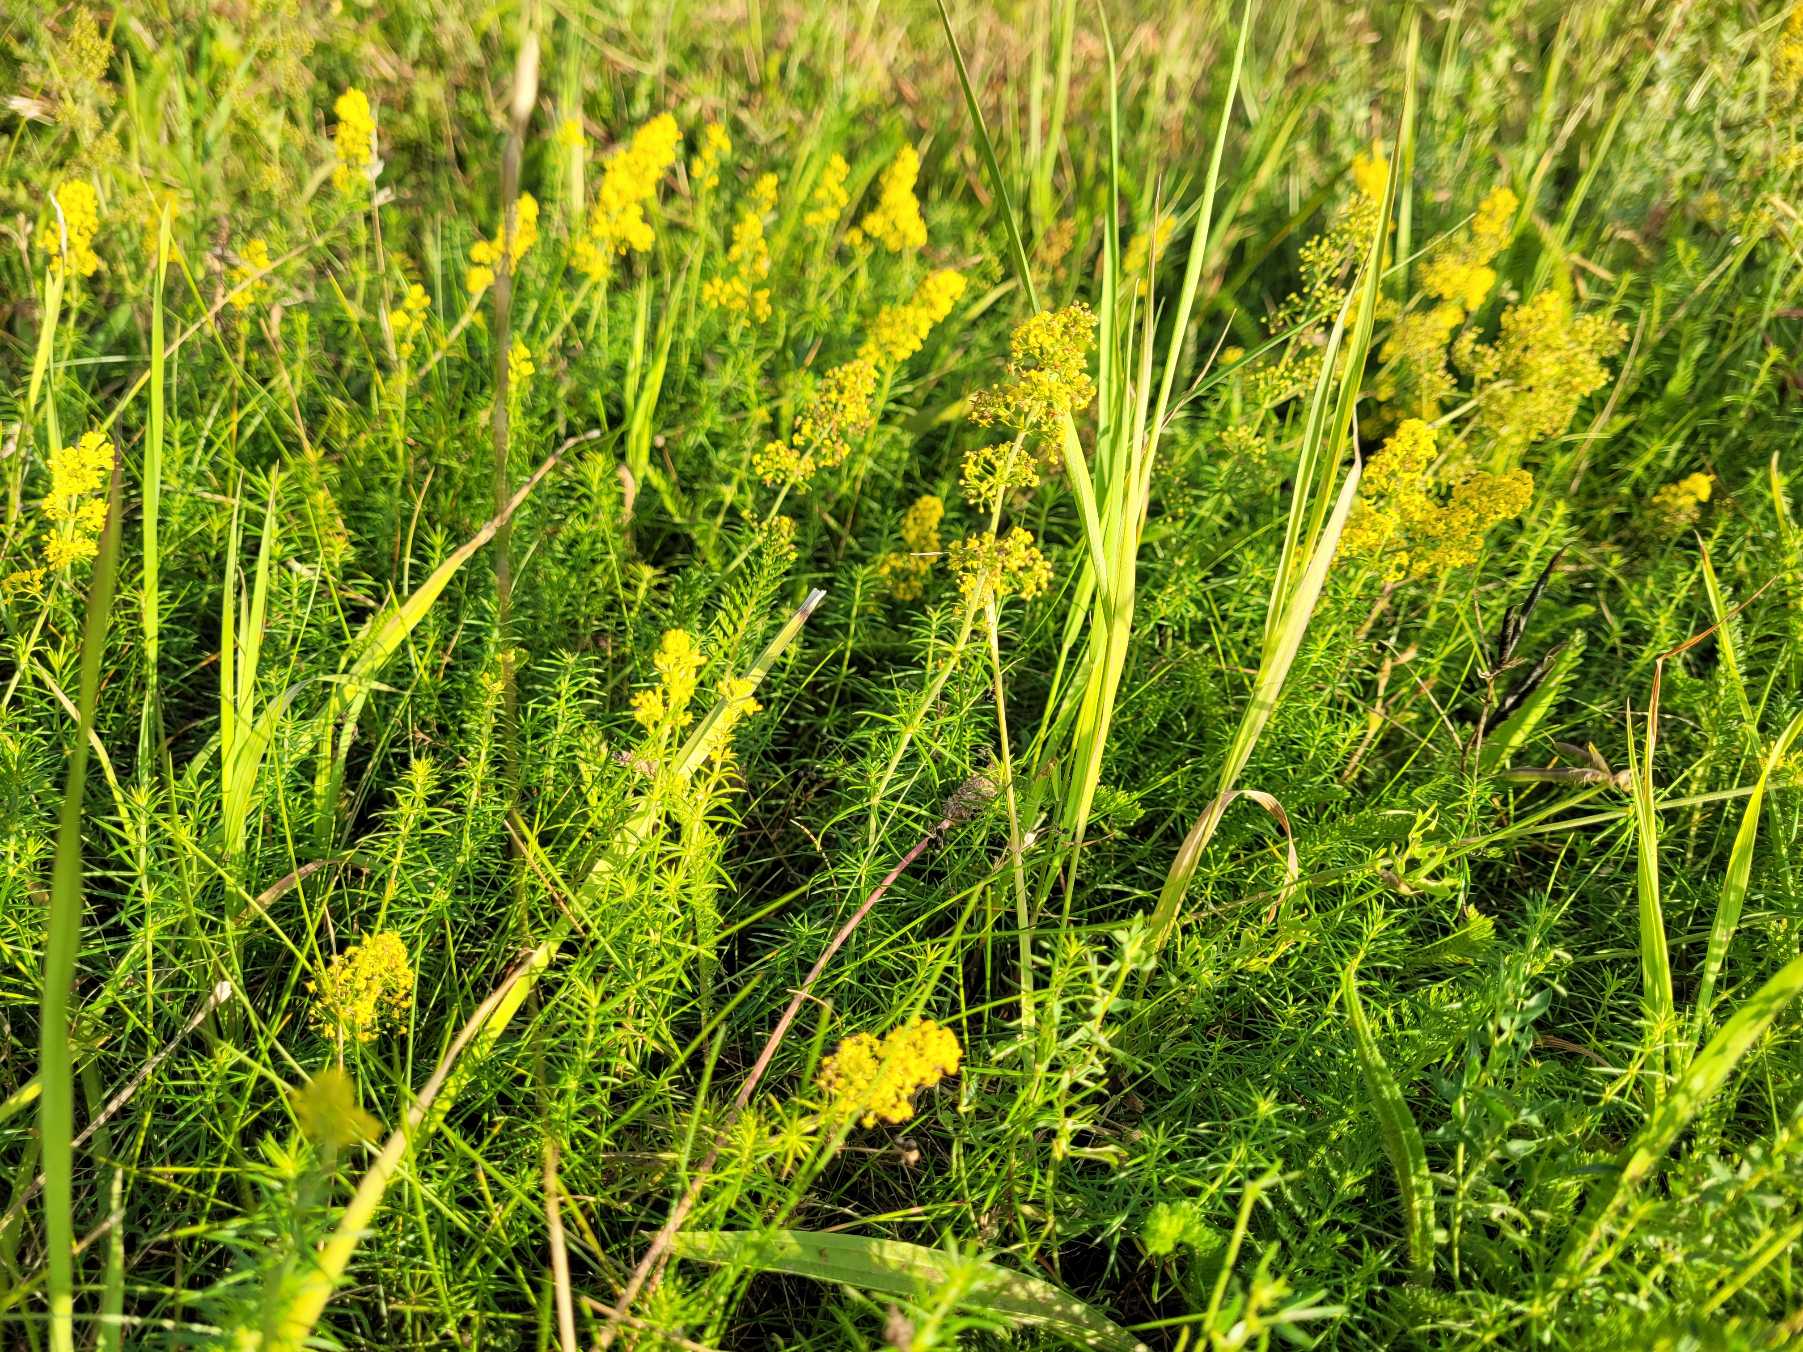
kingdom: Plantae
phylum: Tracheophyta
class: Magnoliopsida
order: Gentianales
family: Rubiaceae
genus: Galium
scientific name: Galium verum
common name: Gul snerre
